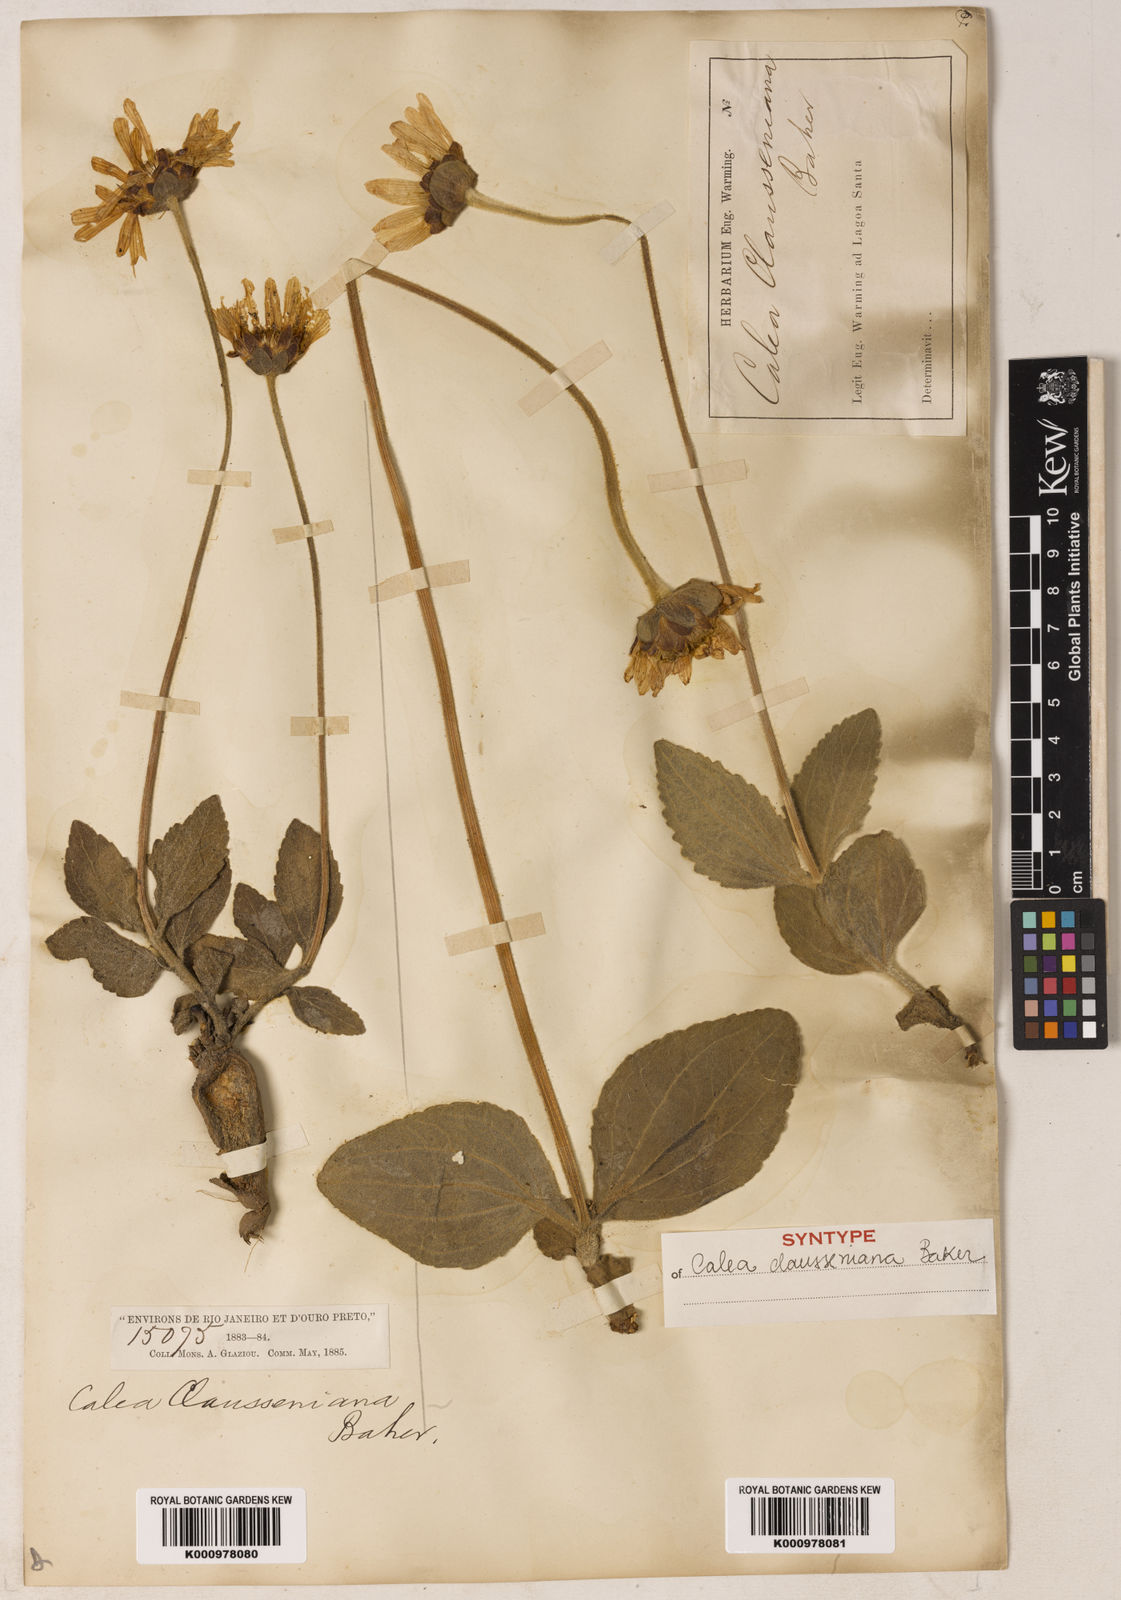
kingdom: Plantae
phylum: Tracheophyta
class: Magnoliopsida
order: Asterales
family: Asteraceae
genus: Calea
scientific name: Calea clausseniana
